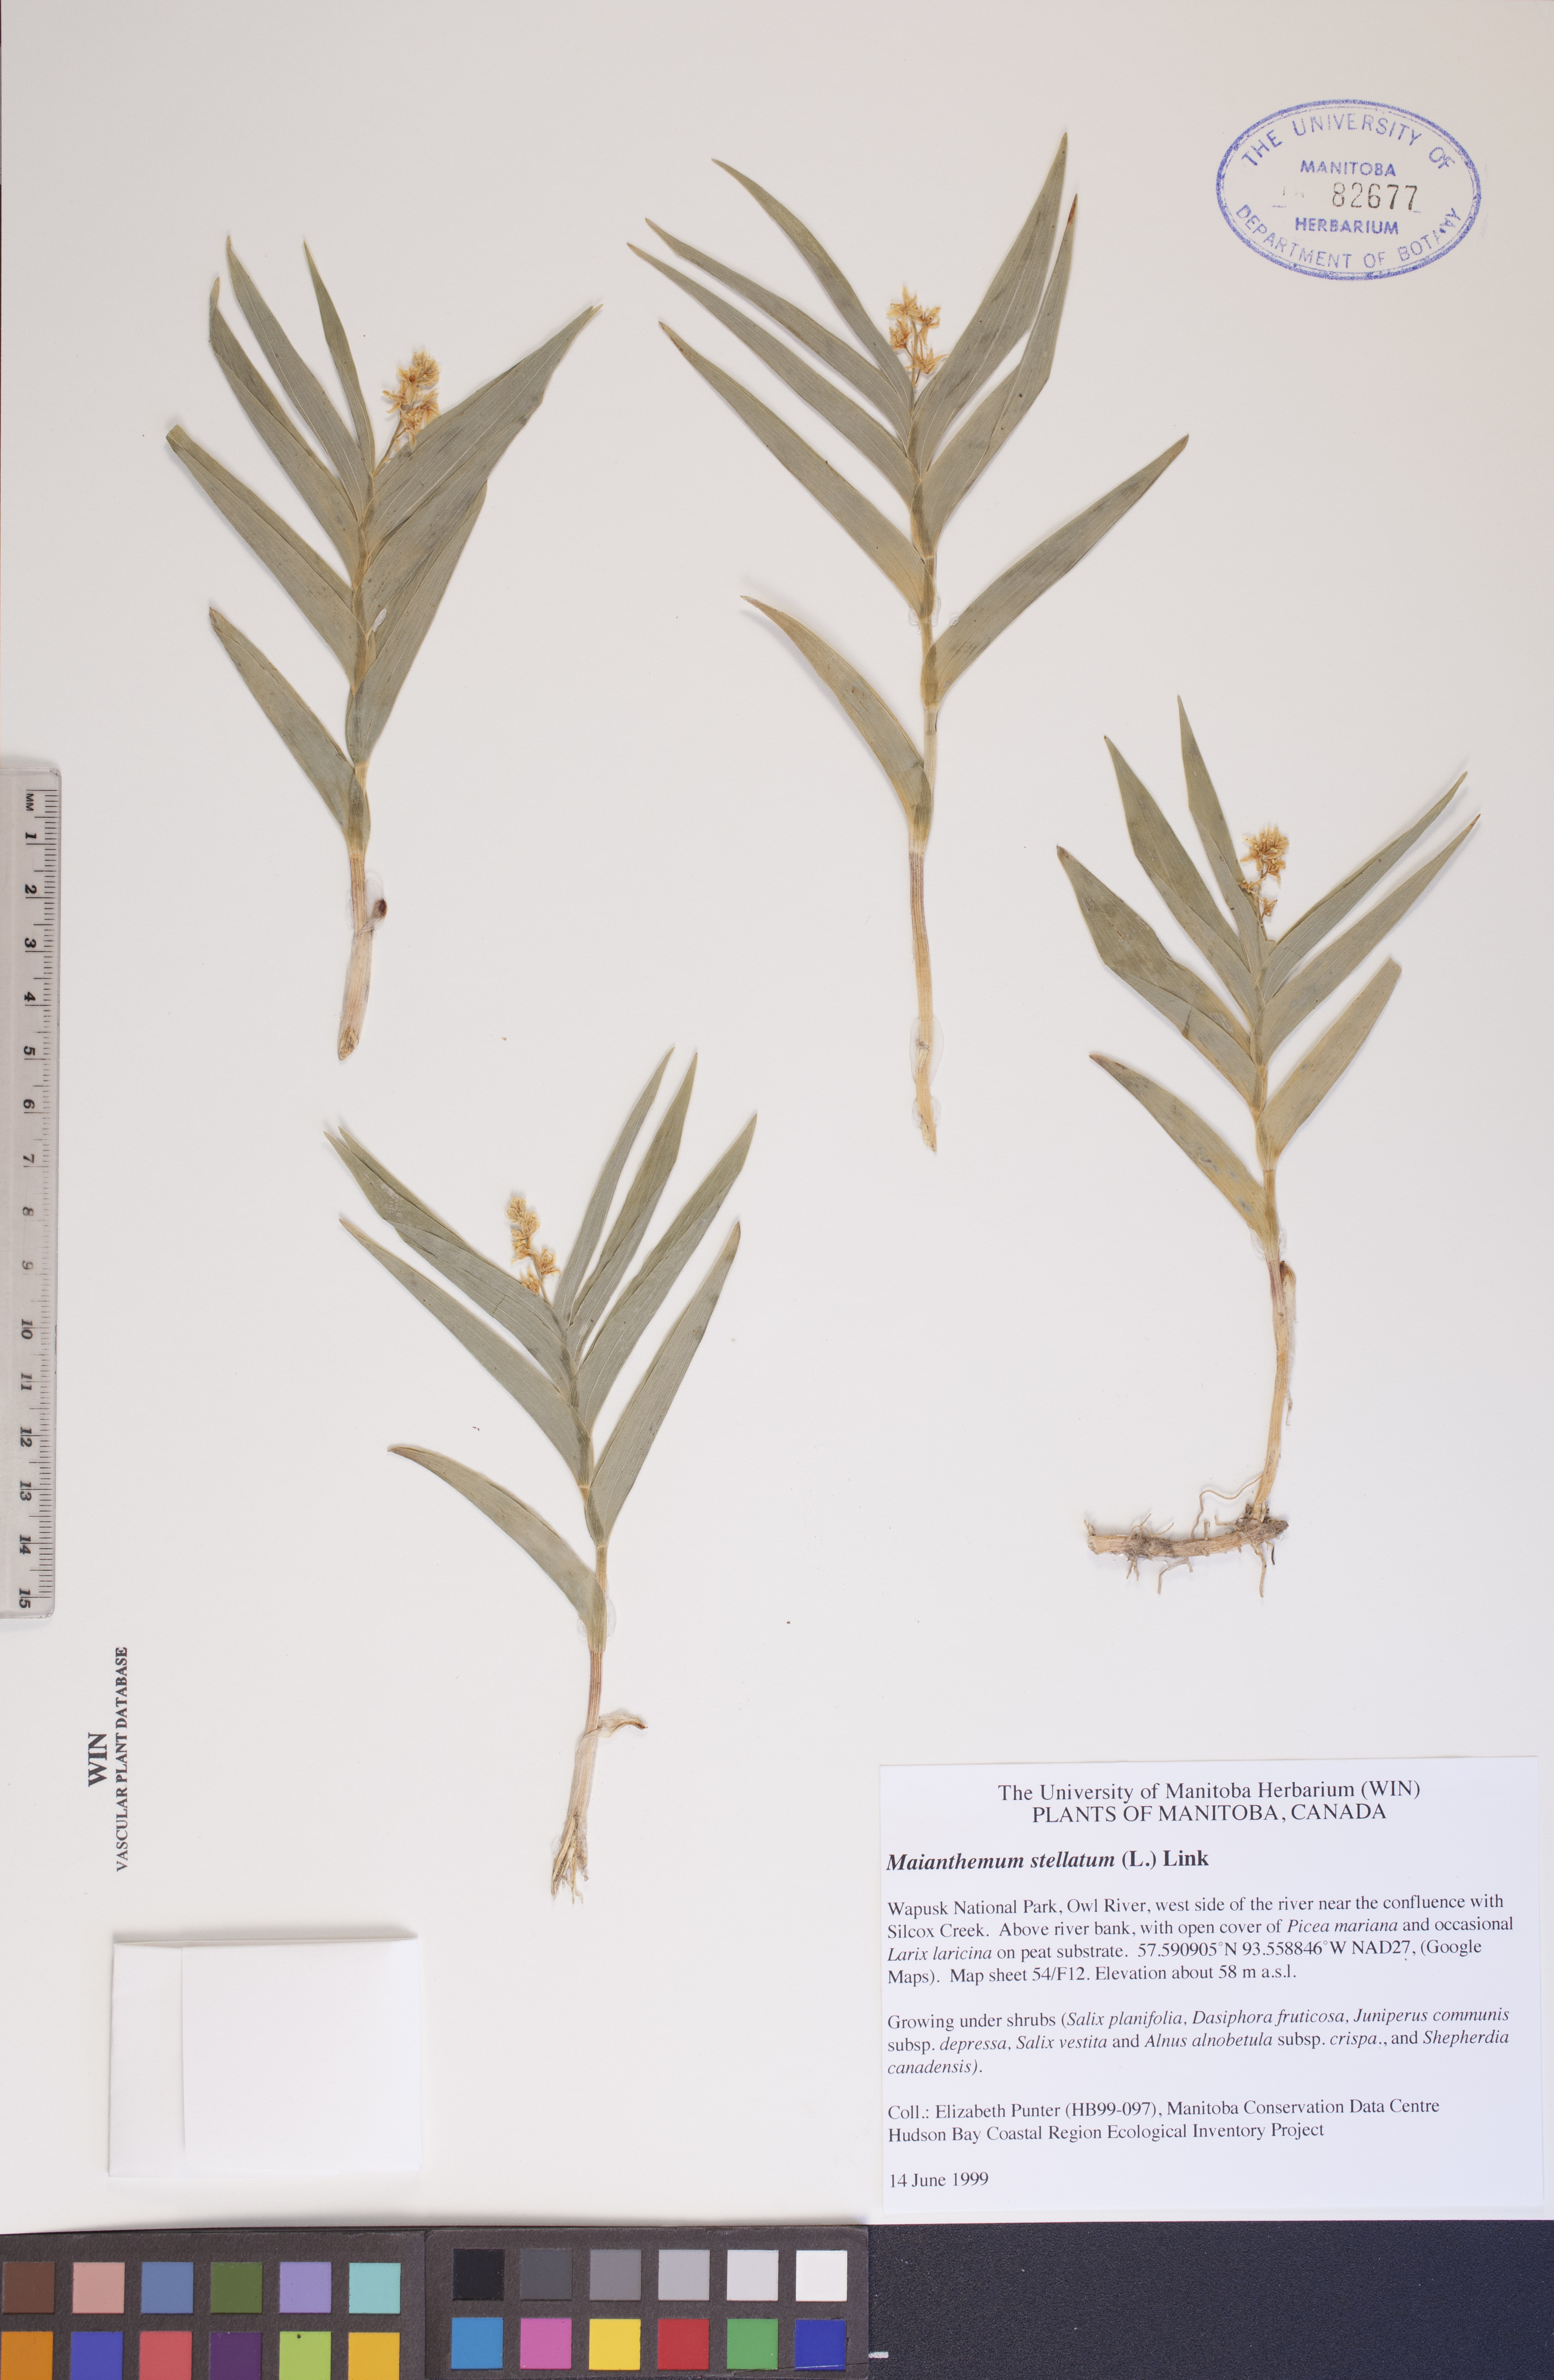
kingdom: Plantae
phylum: Tracheophyta
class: Liliopsida
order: Asparagales
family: Asparagaceae
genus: Maianthemum
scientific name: Maianthemum stellatum
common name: Little false solomon's seal
